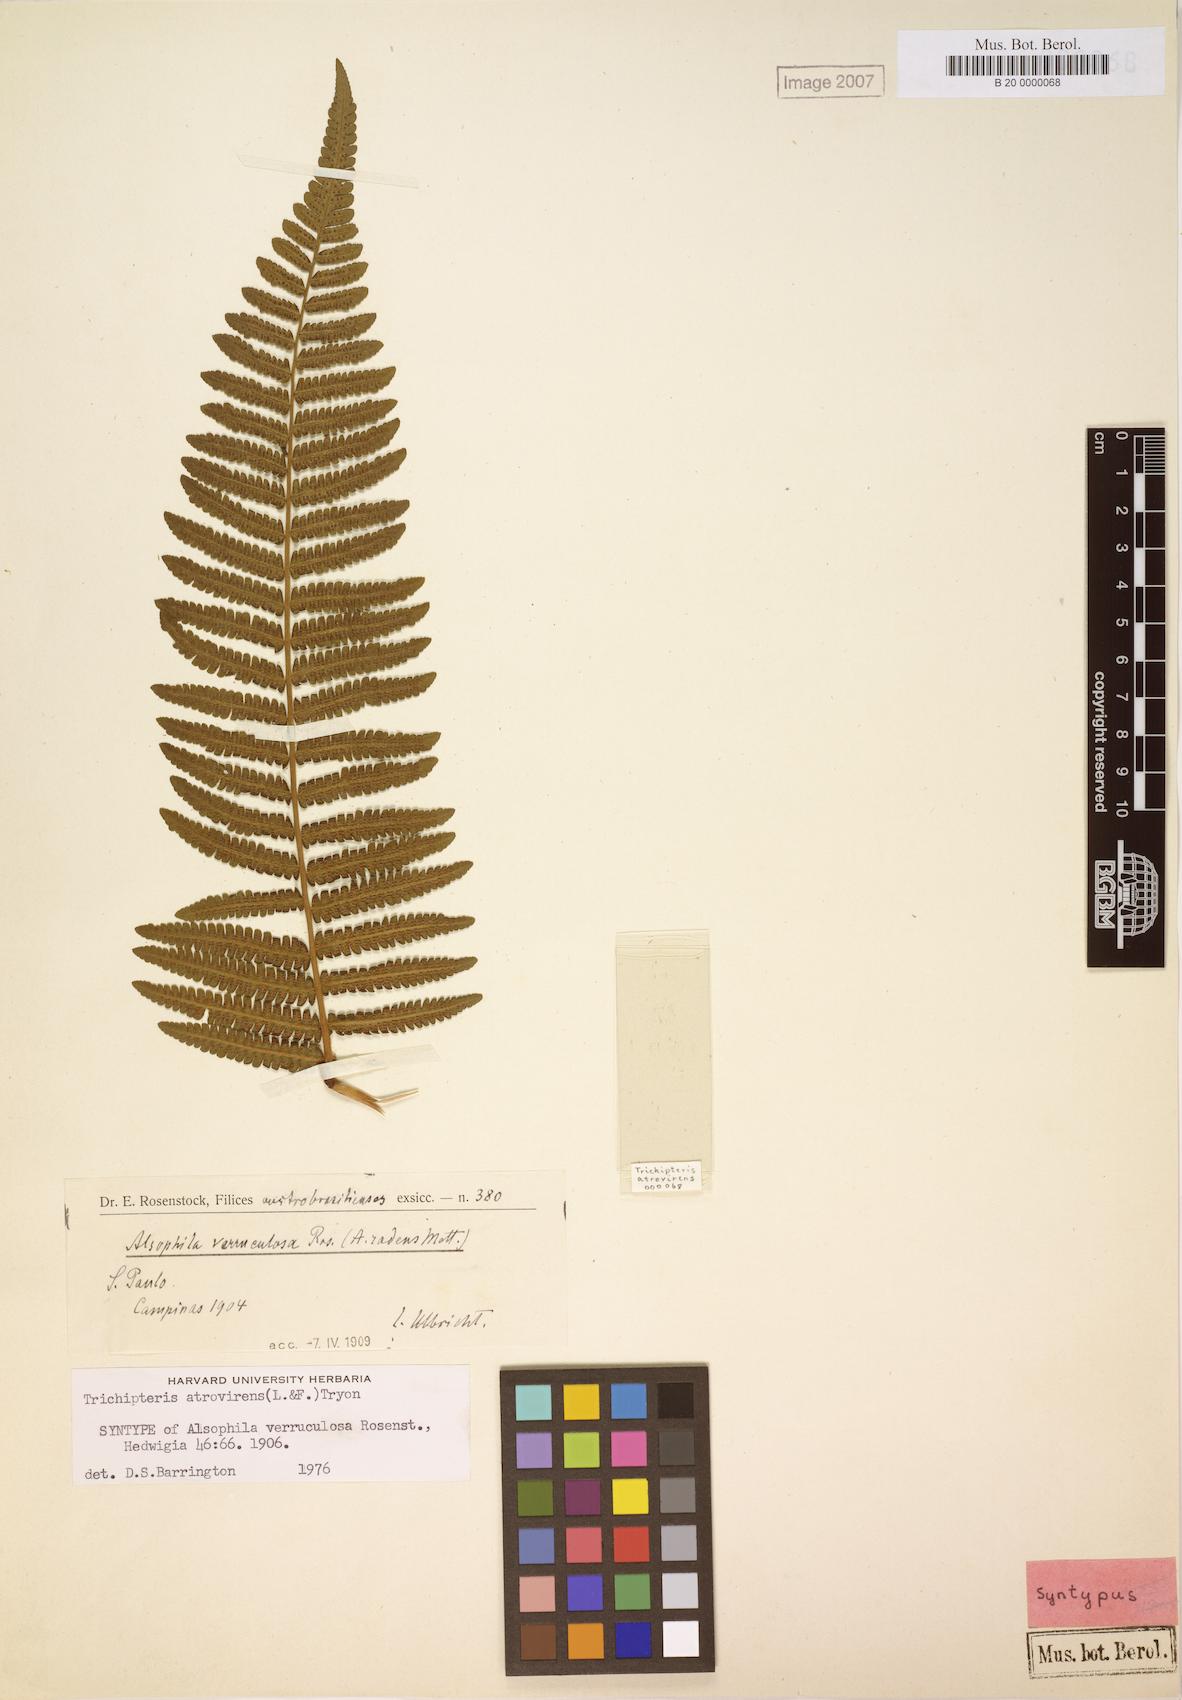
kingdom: Plantae
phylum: Tracheophyta
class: Polypodiopsida
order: Cyatheales
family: Cyatheaceae
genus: Cyathea
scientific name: Cyathea atrovirens
